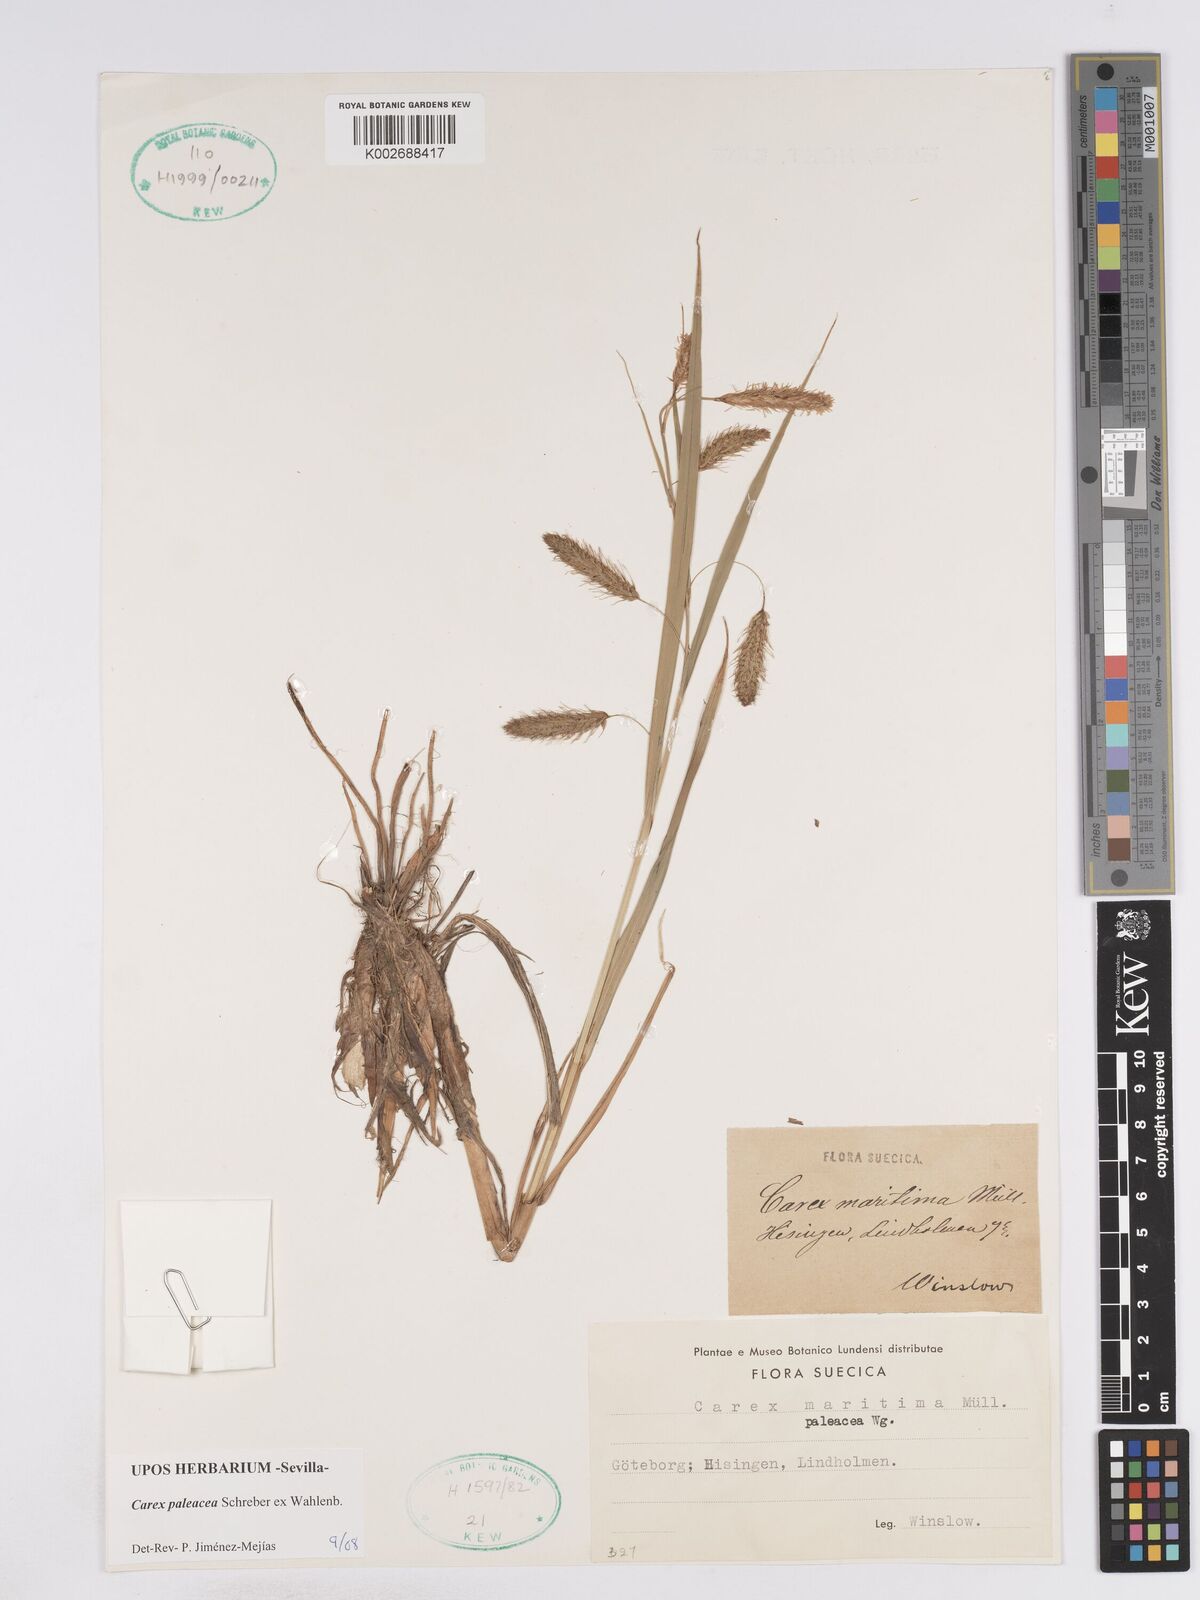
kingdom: Plantae
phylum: Tracheophyta
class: Liliopsida
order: Poales
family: Cyperaceae
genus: Carex
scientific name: Carex paleacea
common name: Chaffy sedge
